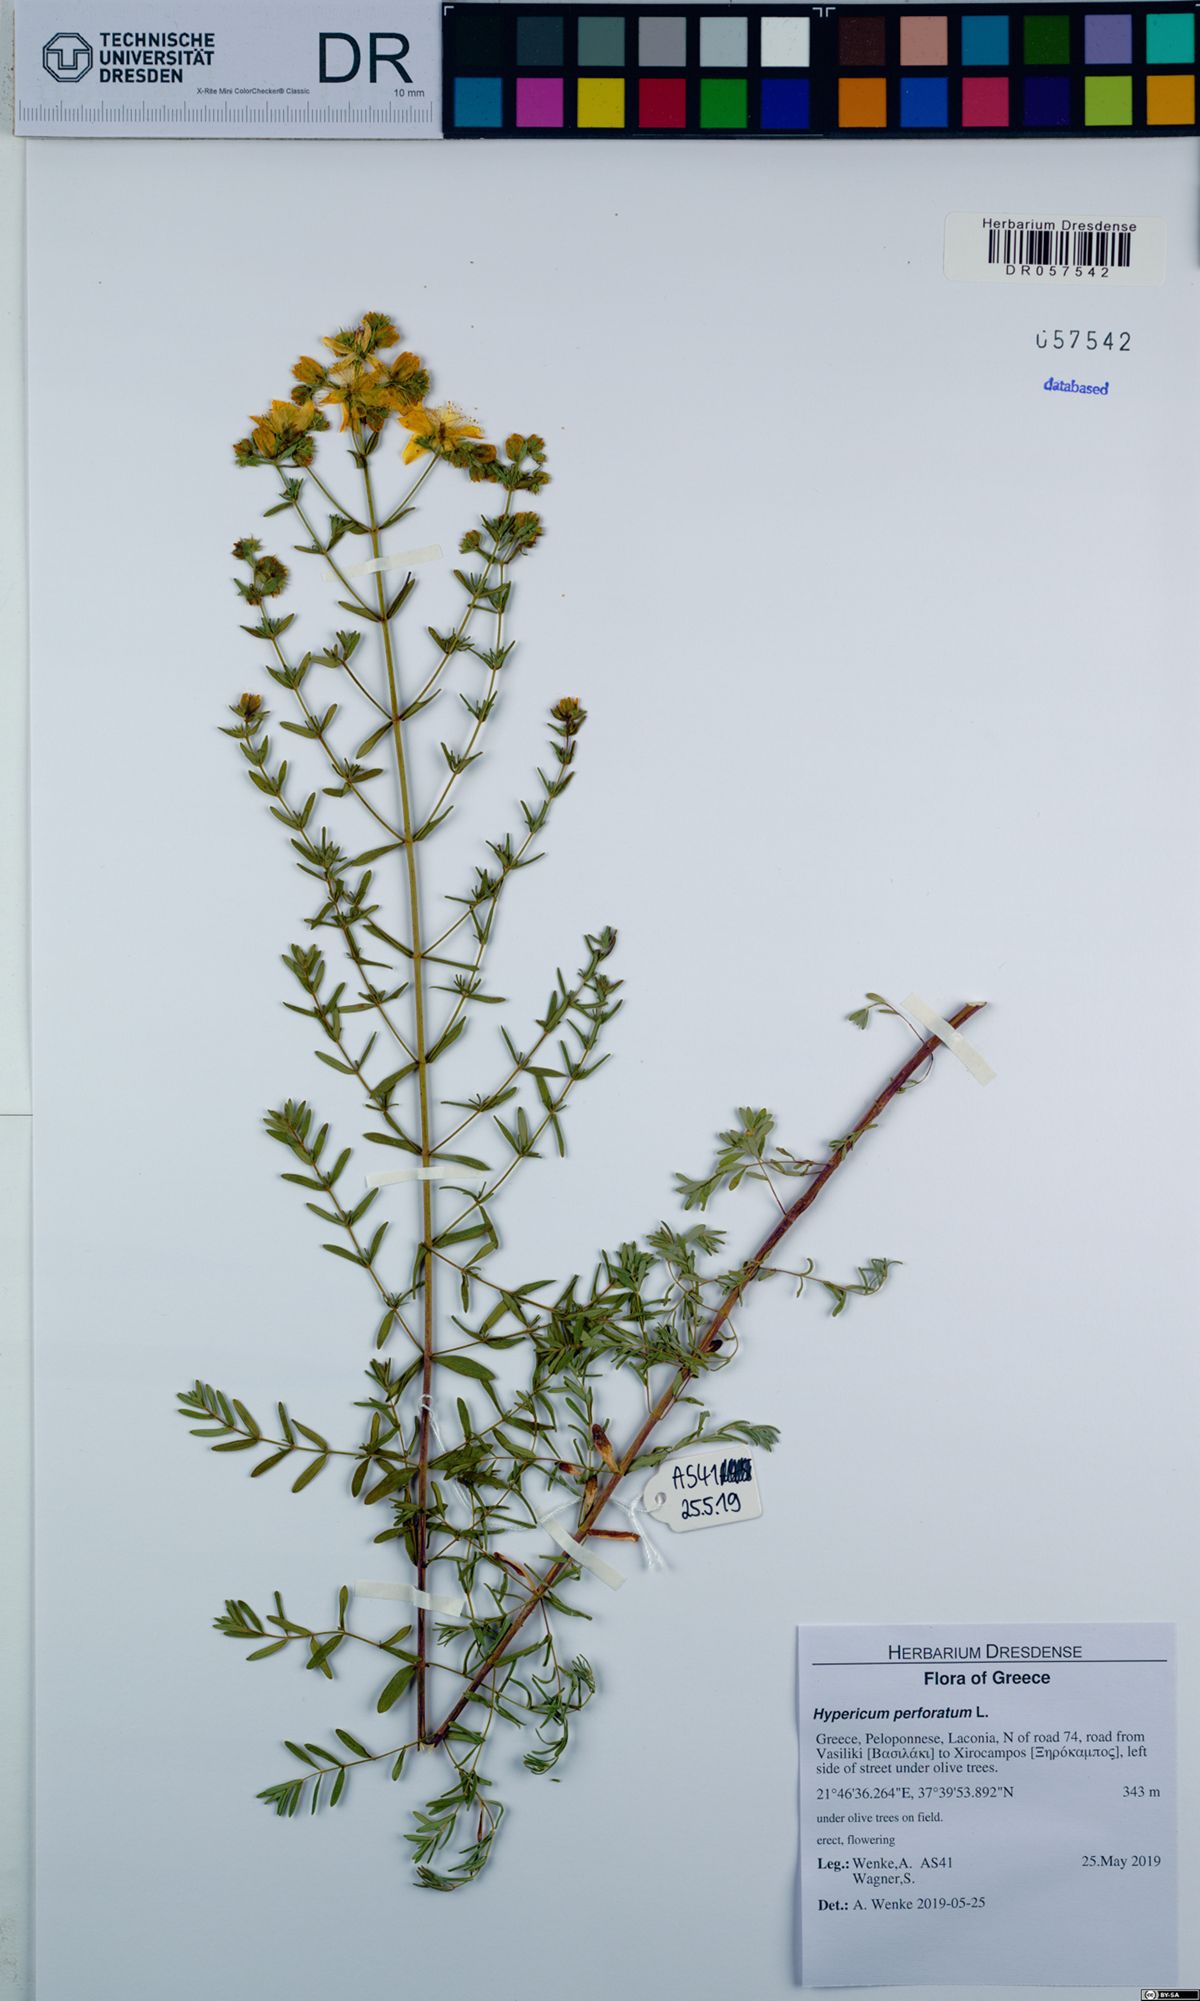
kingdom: Plantae
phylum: Tracheophyta
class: Magnoliopsida
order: Malpighiales
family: Hypericaceae
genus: Hypericum
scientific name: Hypericum perforatum
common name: Common st. johnswort
